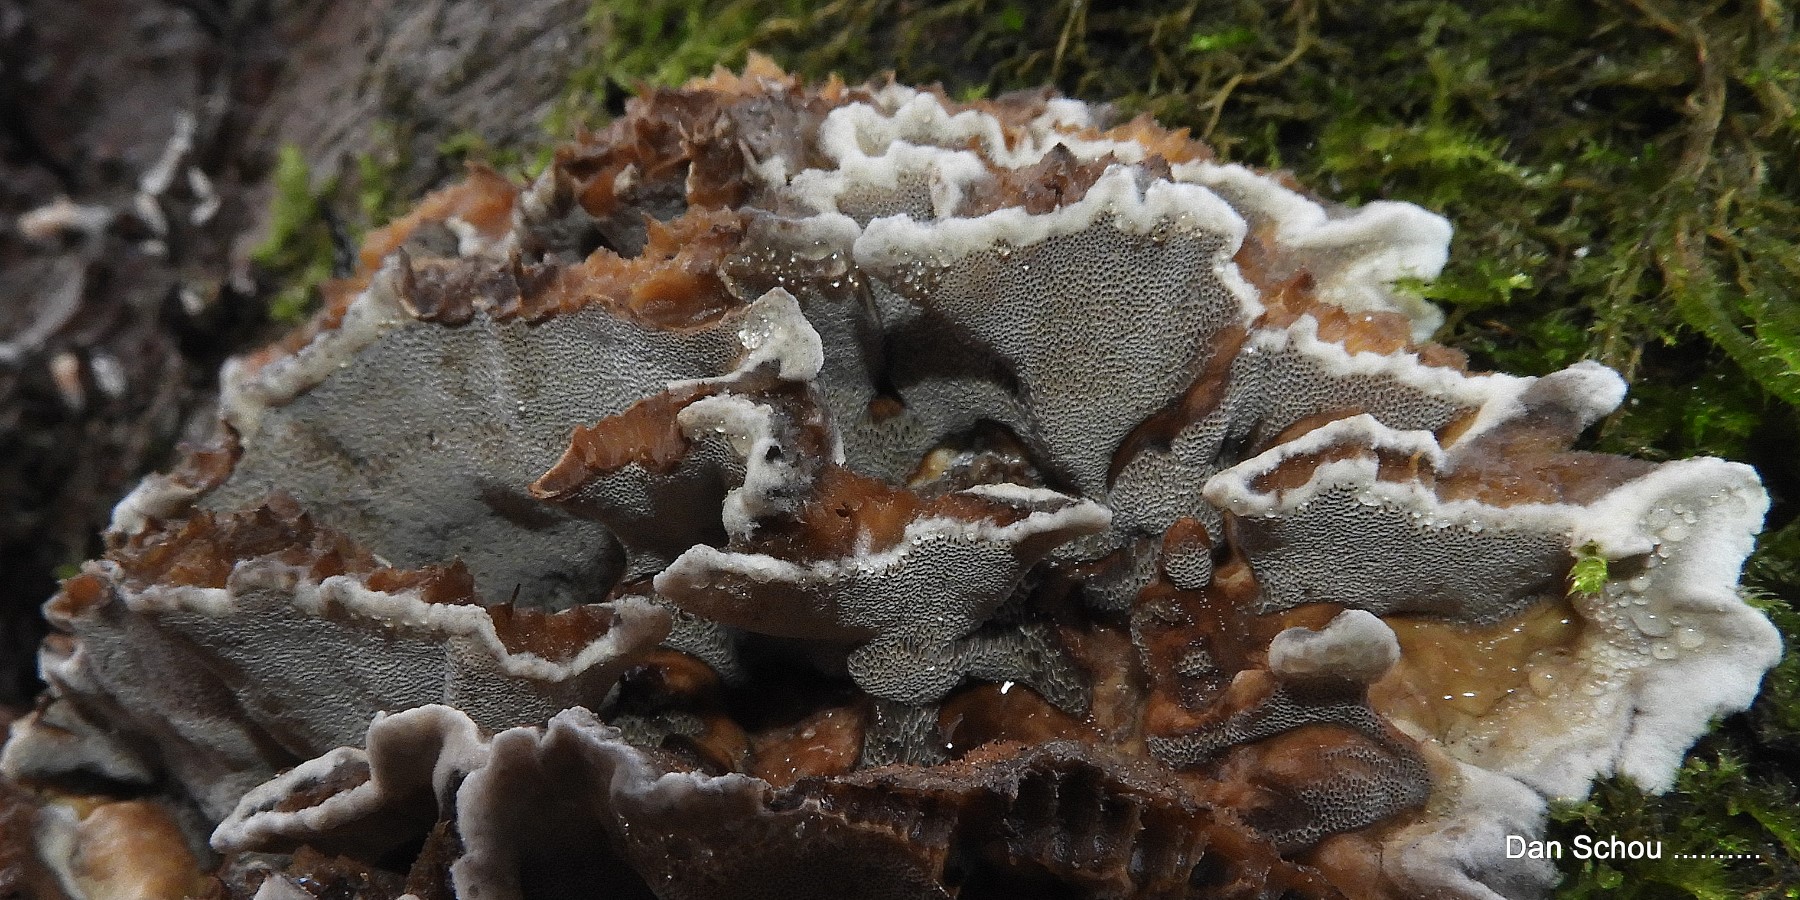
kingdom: Fungi
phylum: Basidiomycota
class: Agaricomycetes
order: Agaricales
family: Cyphellaceae
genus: Chondrostereum
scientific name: Chondrostereum purpureum
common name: purpurlædersvamp
